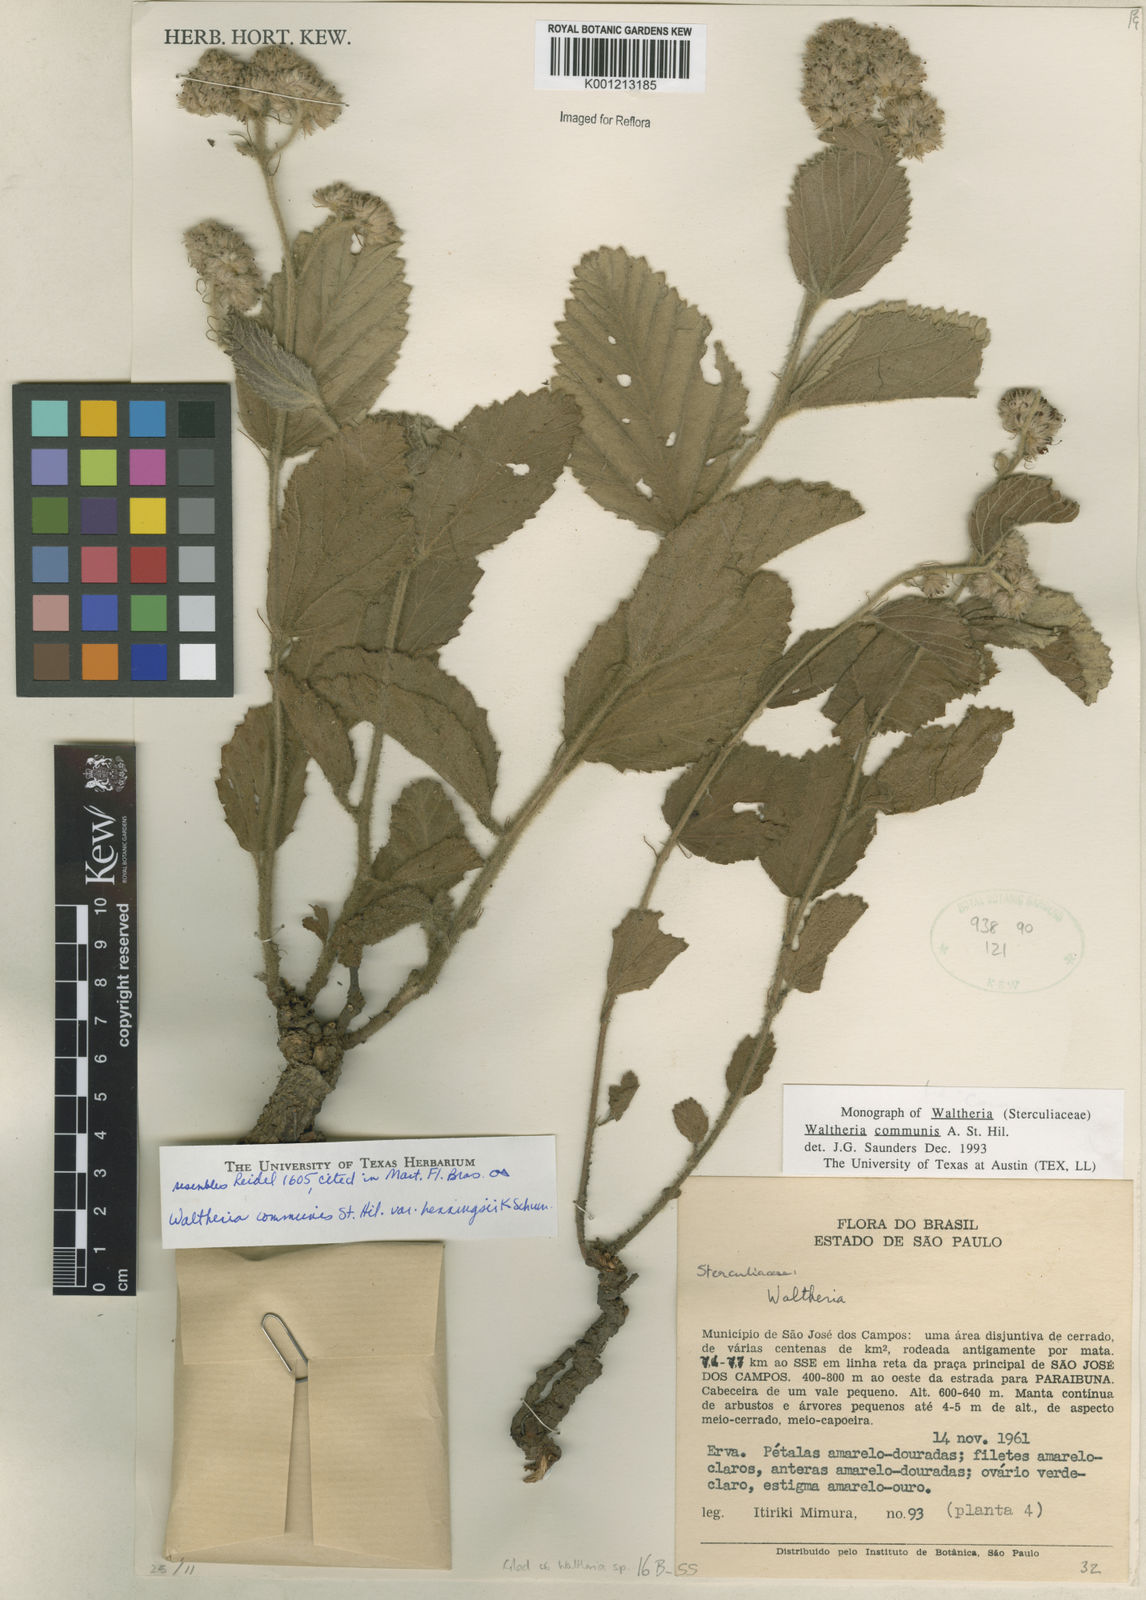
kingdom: Plantae
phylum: Tracheophyta
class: Magnoliopsida
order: Malvales
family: Malvaceae
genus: Waltheria
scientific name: Waltheria communis
